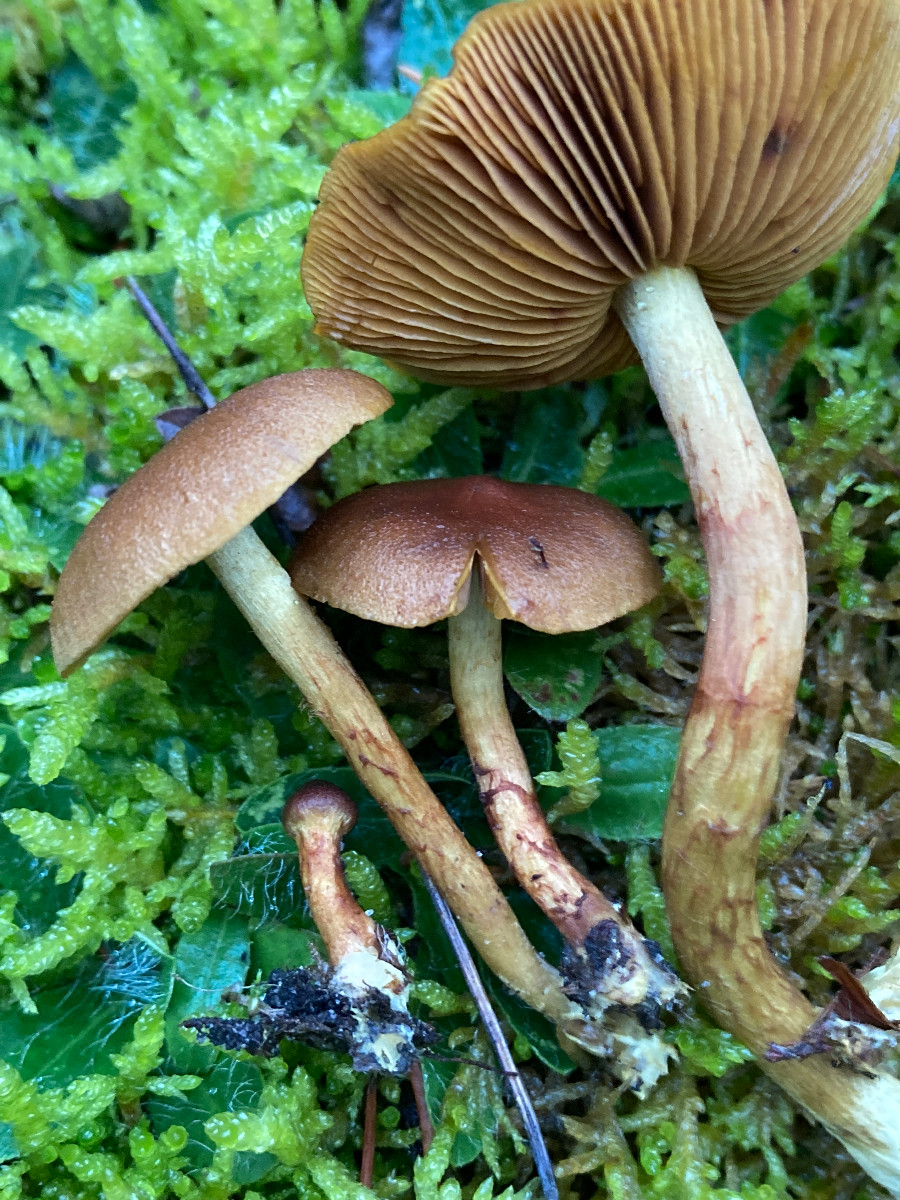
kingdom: Fungi
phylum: Basidiomycota
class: Agaricomycetes
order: Agaricales
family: Cortinariaceae
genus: Cortinarius
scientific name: Cortinarius
